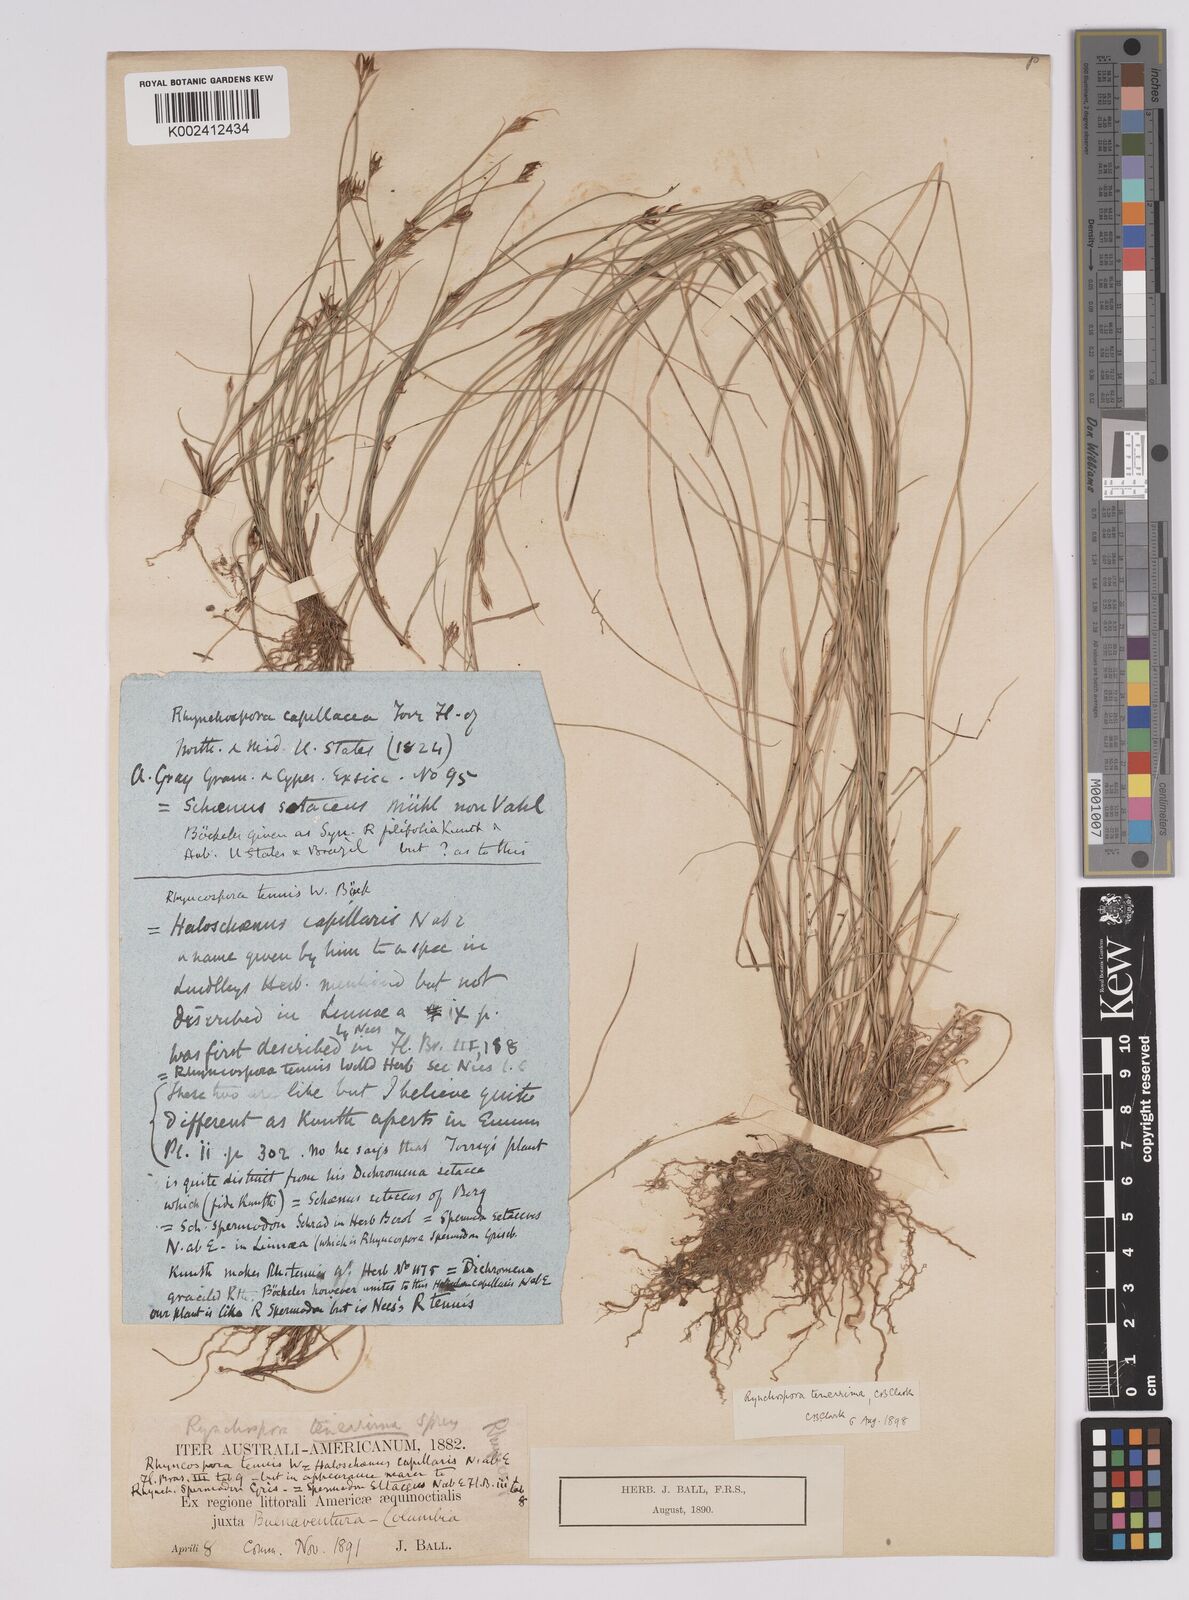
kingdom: Plantae
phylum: Tracheophyta
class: Liliopsida
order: Poales
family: Cyperaceae
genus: Rhynchospora
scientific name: Rhynchospora tenerrima
